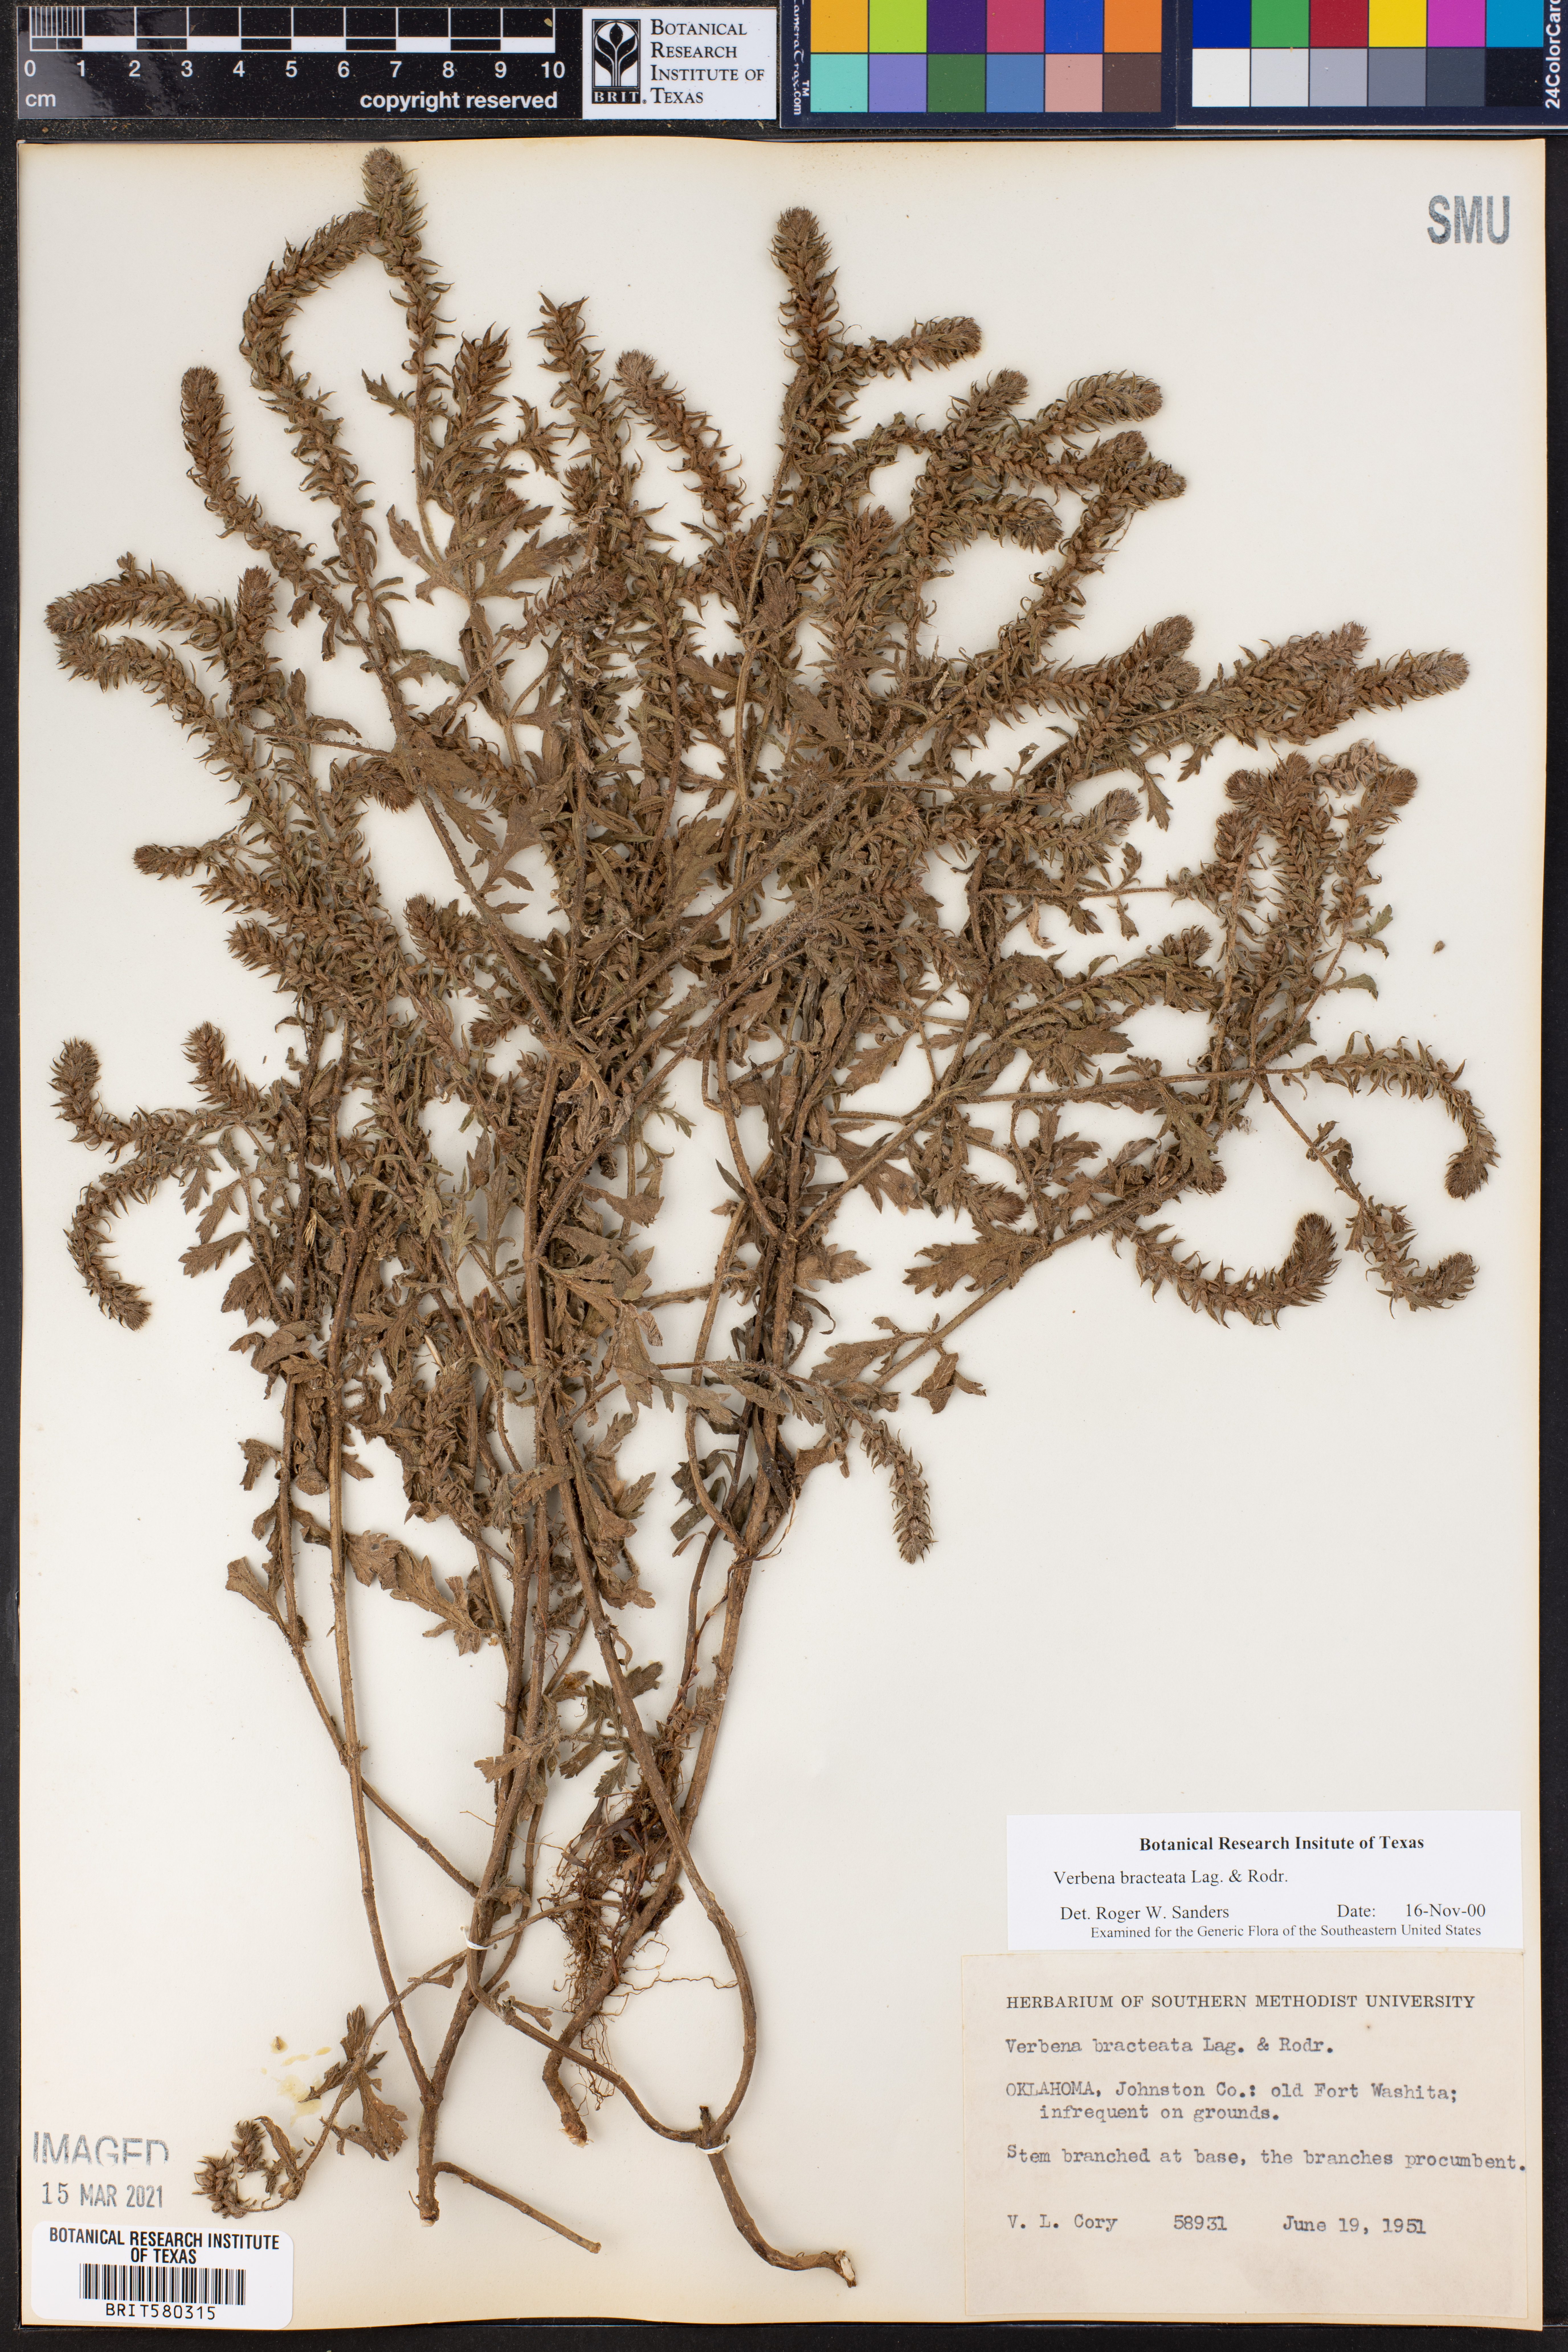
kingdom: Plantae
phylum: Tracheophyta
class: Magnoliopsida
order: Lamiales
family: Verbenaceae
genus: Verbena
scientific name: Verbena bracteata
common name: Bracted vervain
